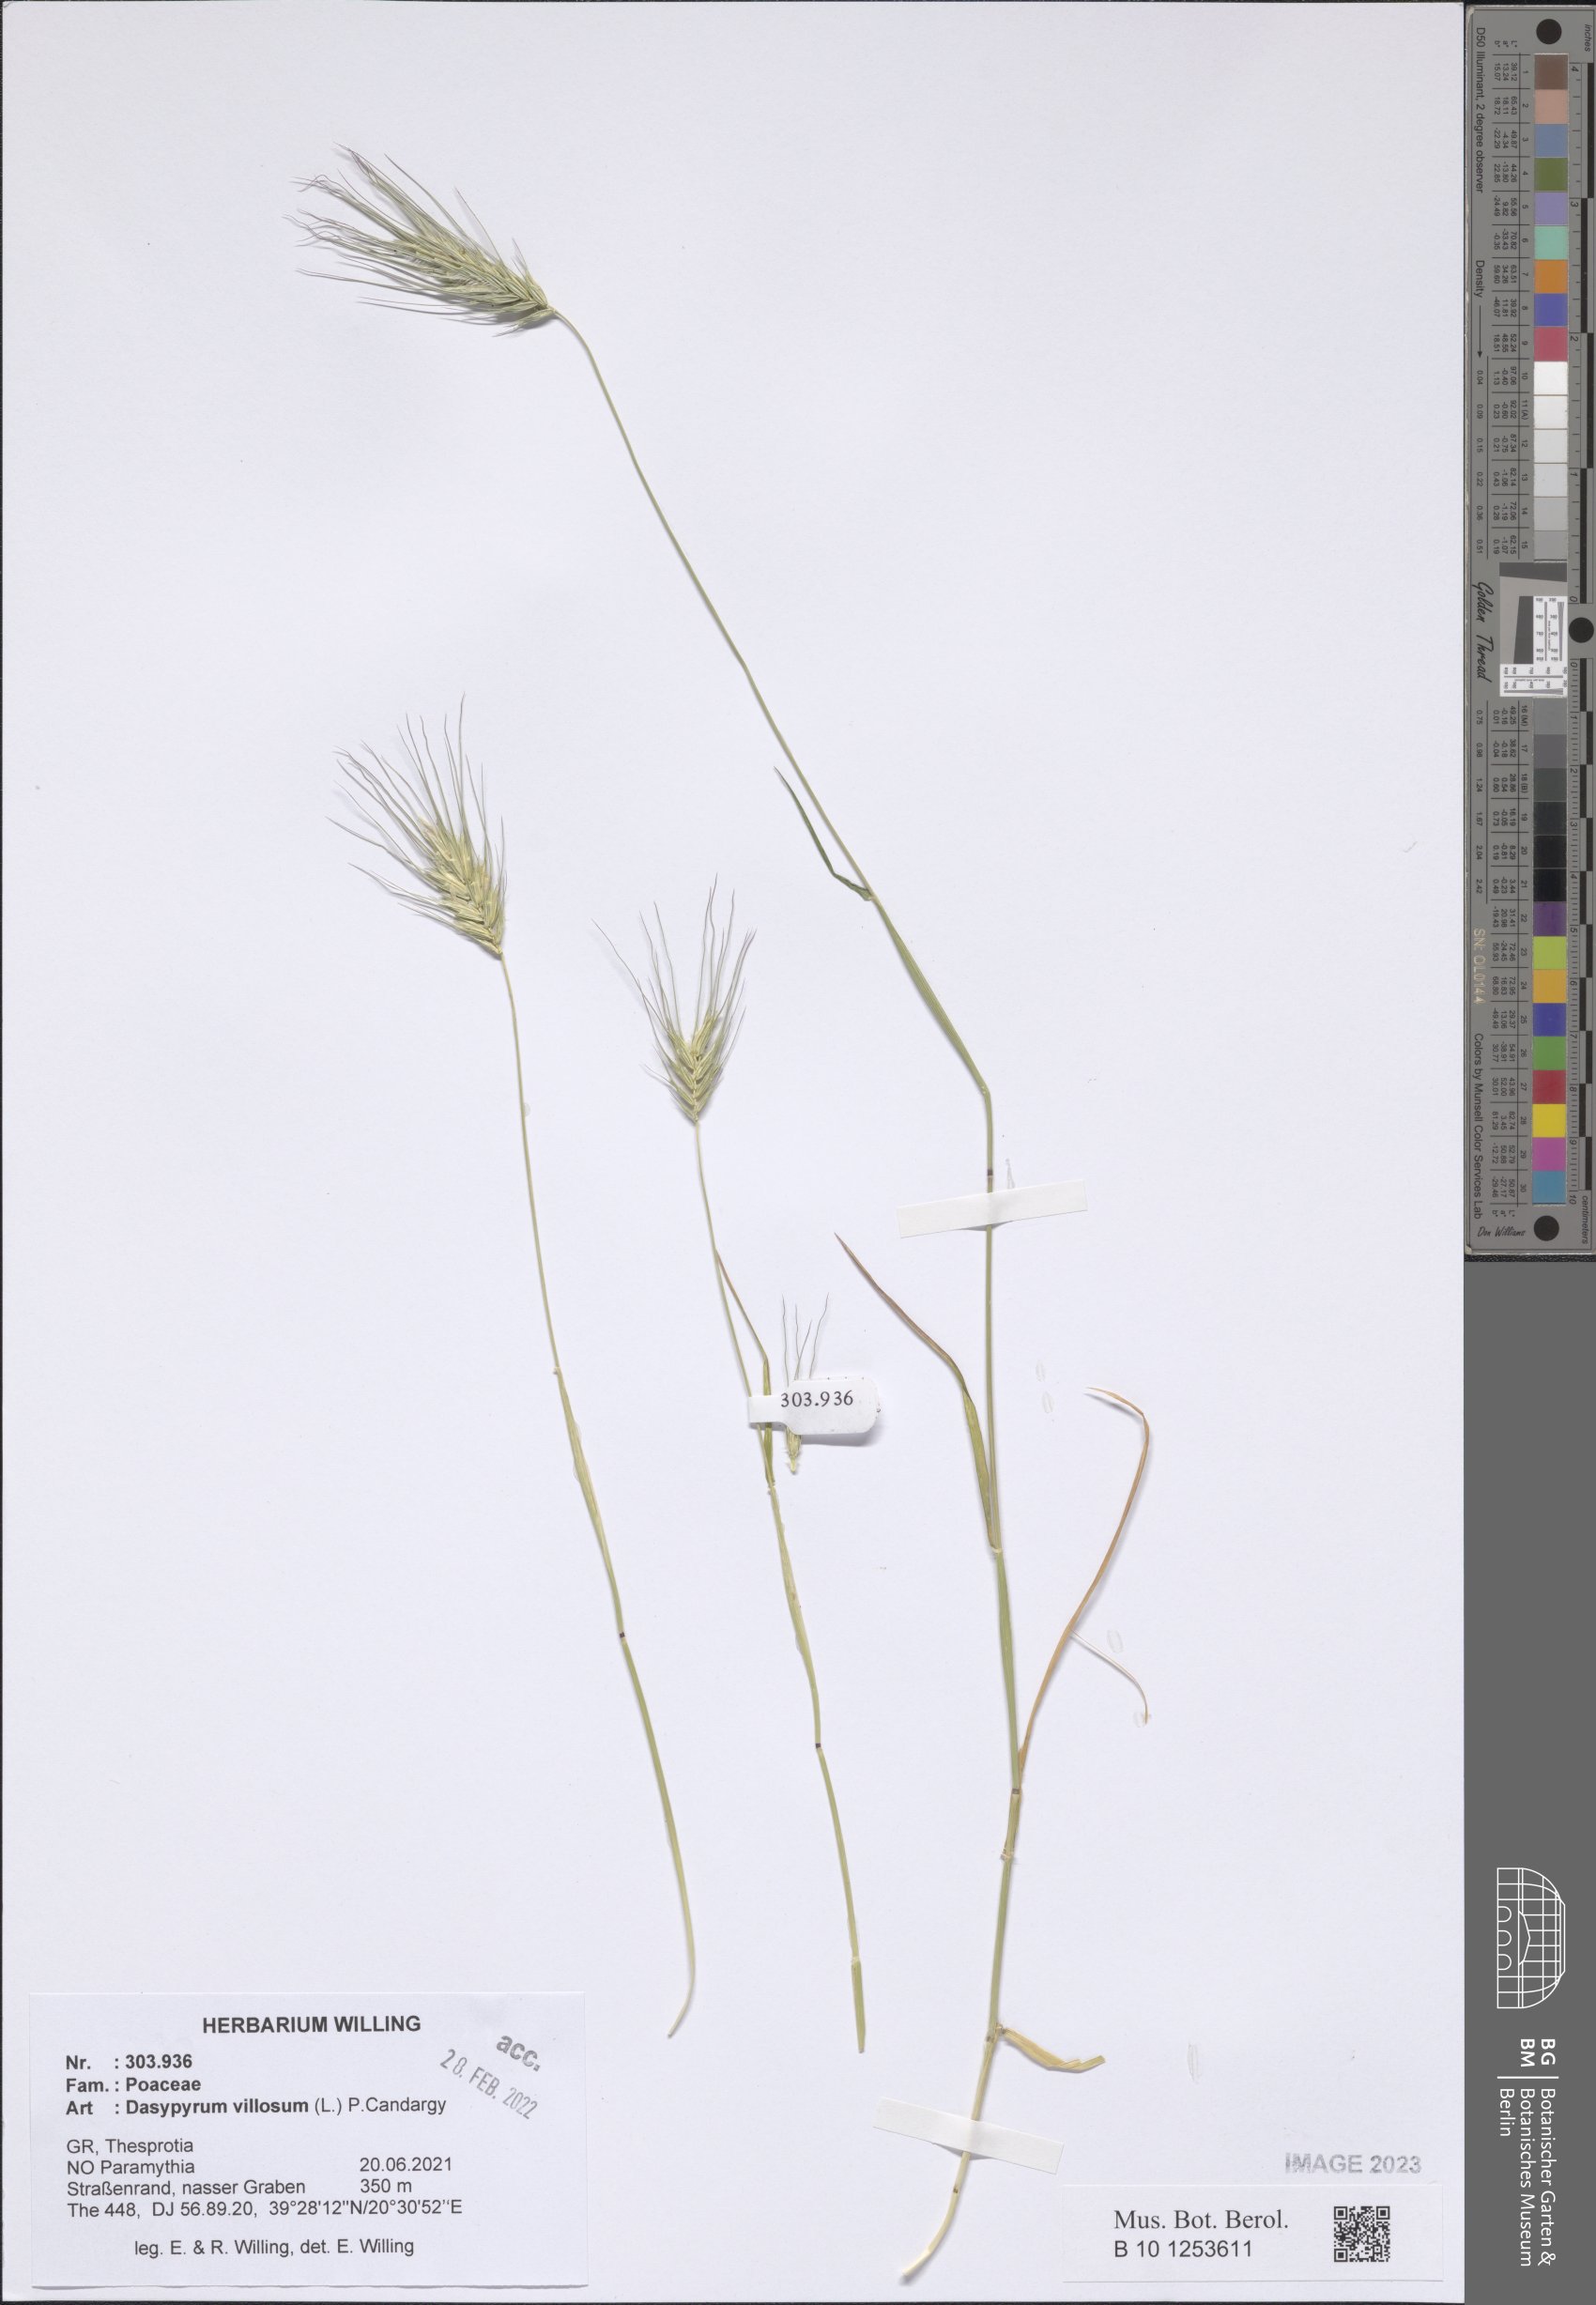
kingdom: Plantae
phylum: Tracheophyta
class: Liliopsida
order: Poales
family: Poaceae
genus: Dasypyrum
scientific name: Dasypyrum villosum
